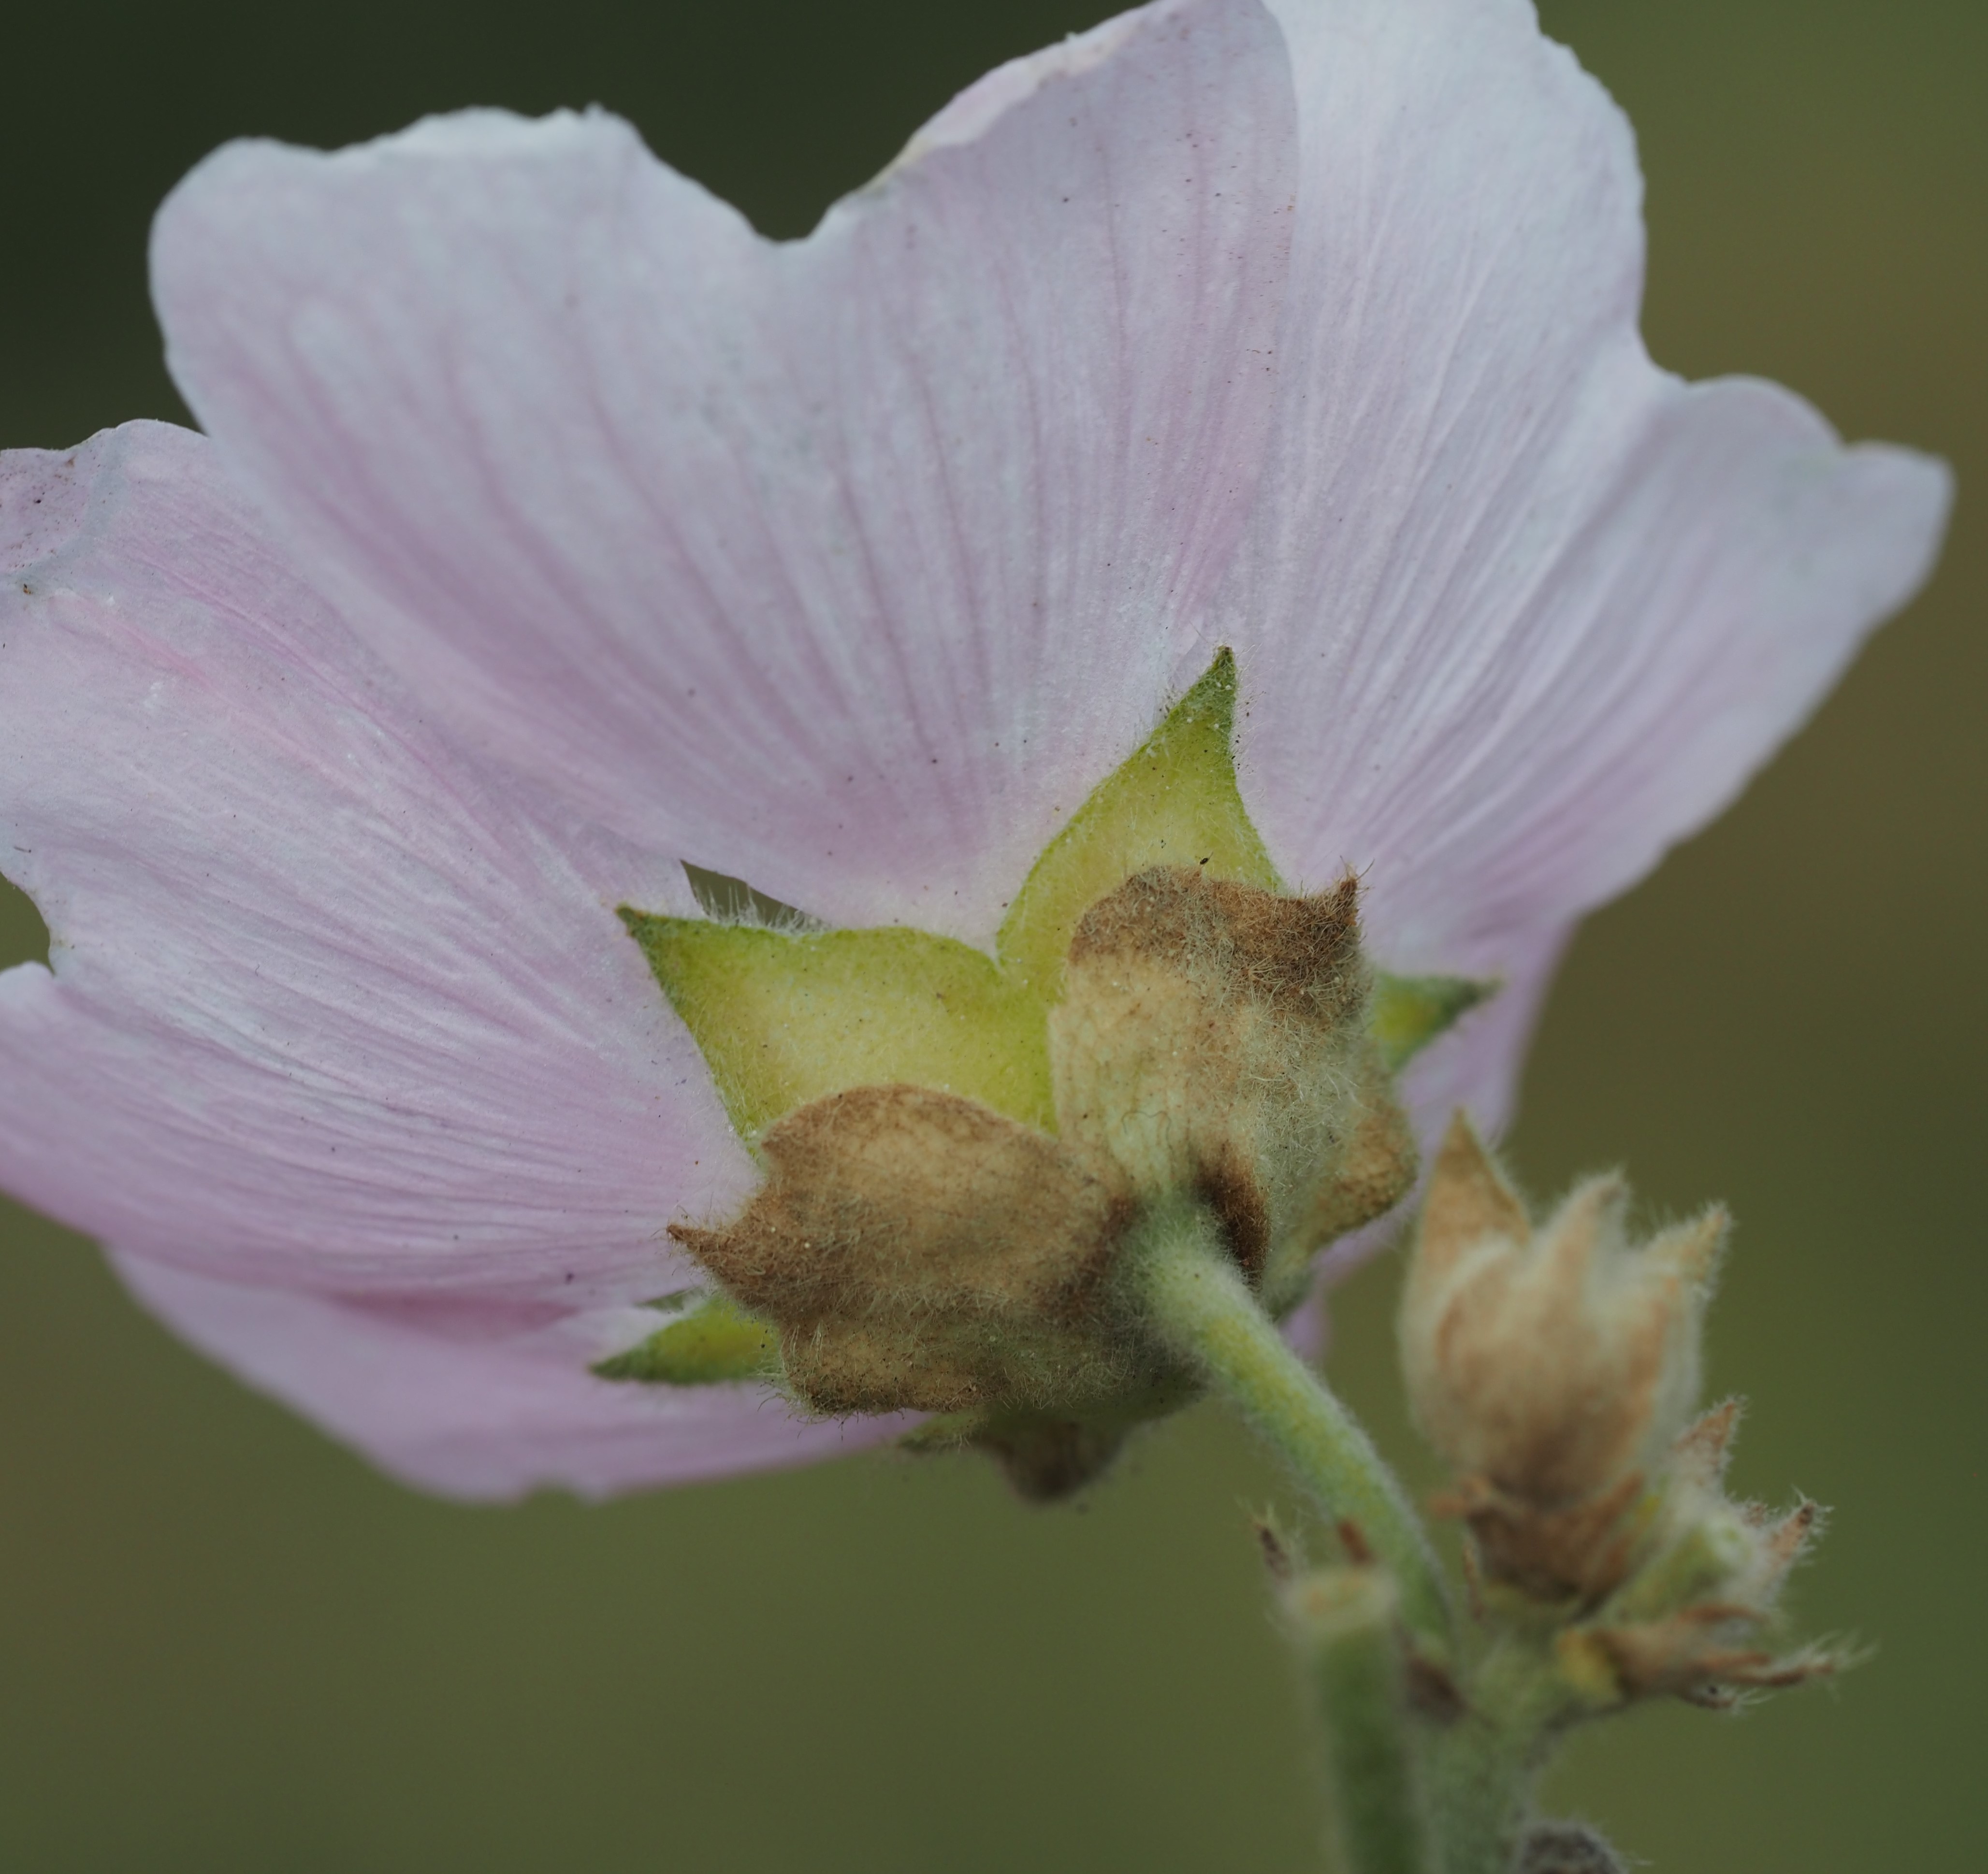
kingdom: Plantae
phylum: Tracheophyta
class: Magnoliopsida
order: Malvales
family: Malvaceae
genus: Malva
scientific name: Malva thuringiaca
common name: Tysk poppelrose
